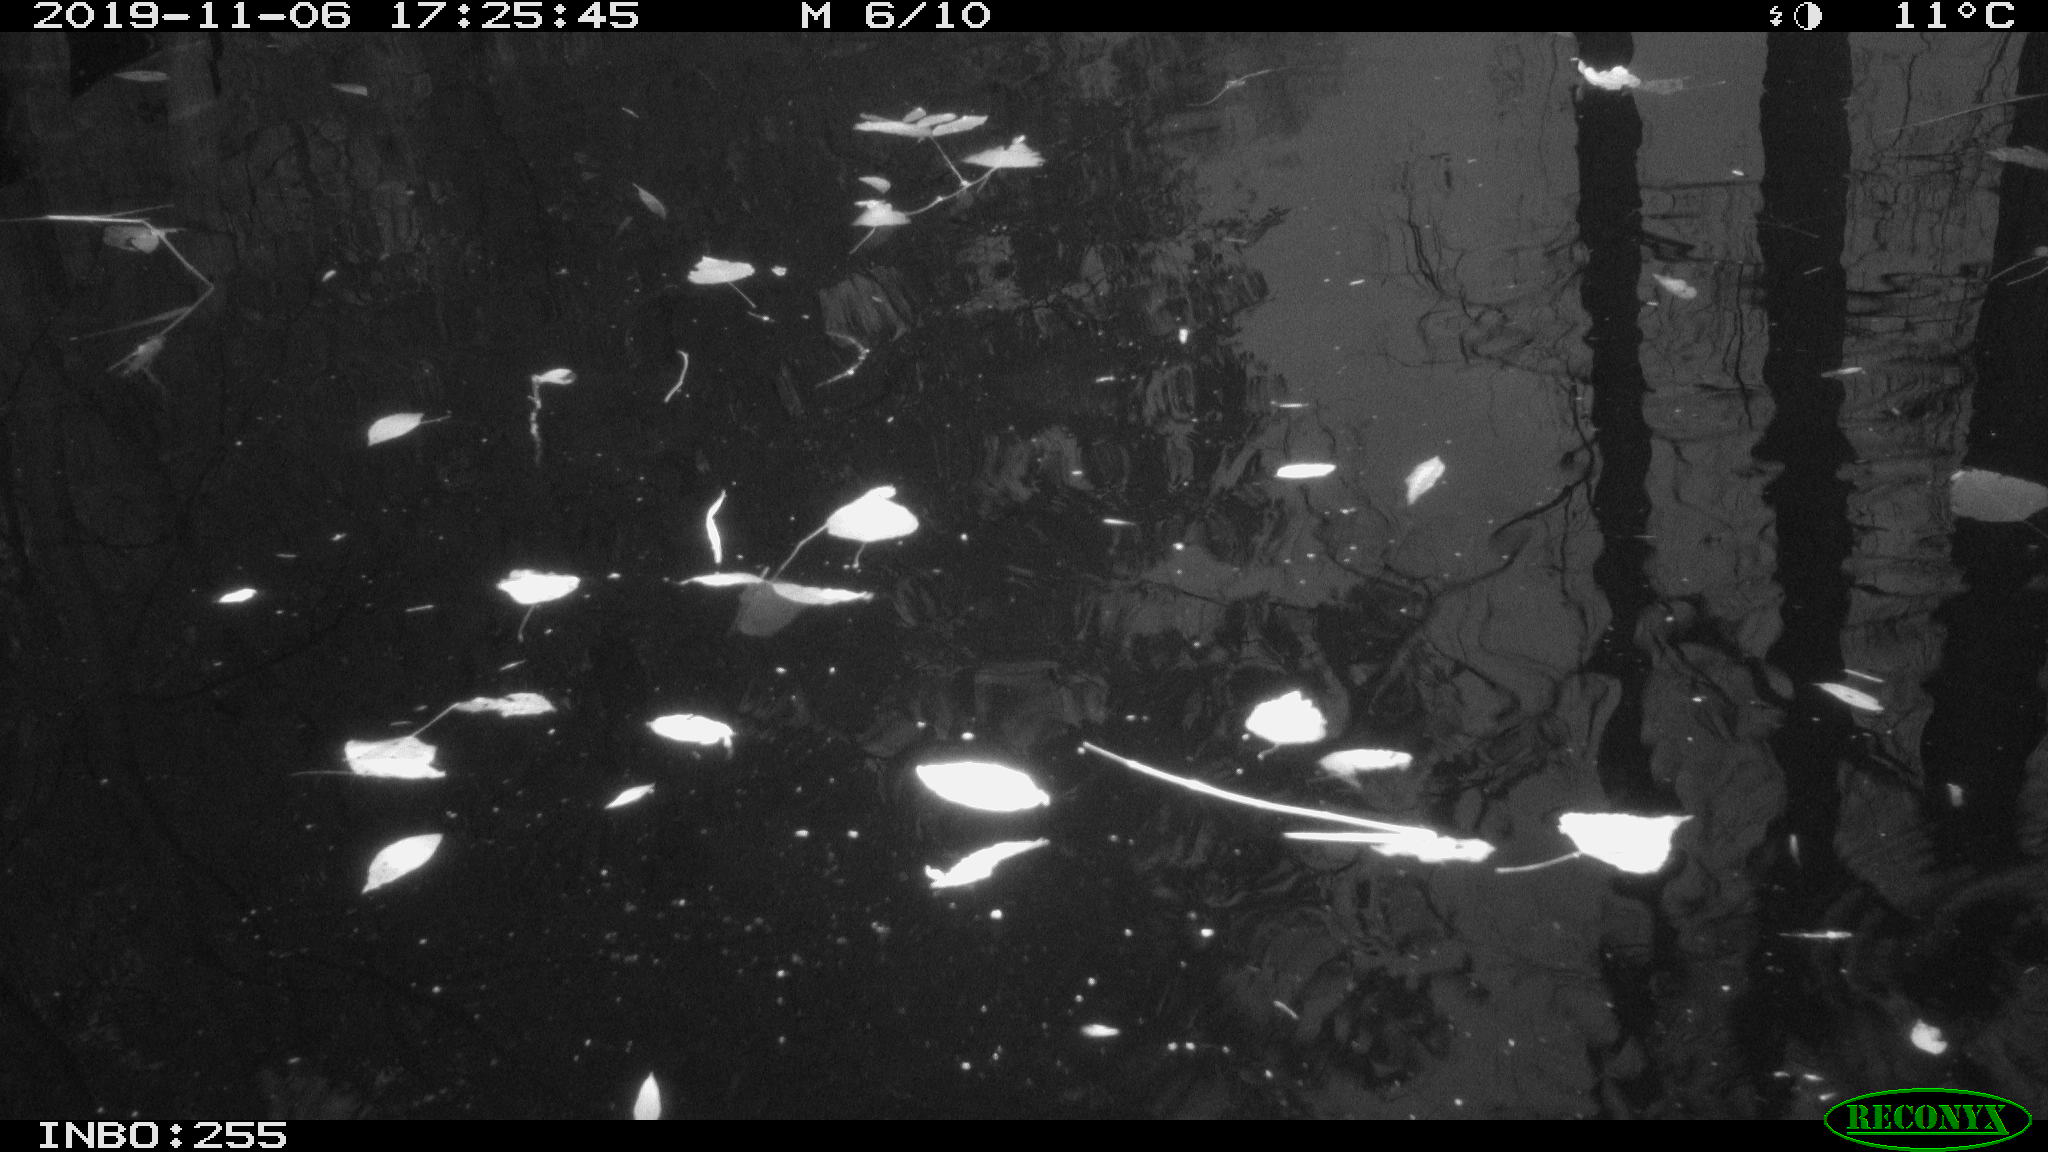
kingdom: Animalia
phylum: Chordata
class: Aves
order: Gruiformes
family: Rallidae
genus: Gallinula
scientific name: Gallinula chloropus
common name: Common moorhen
